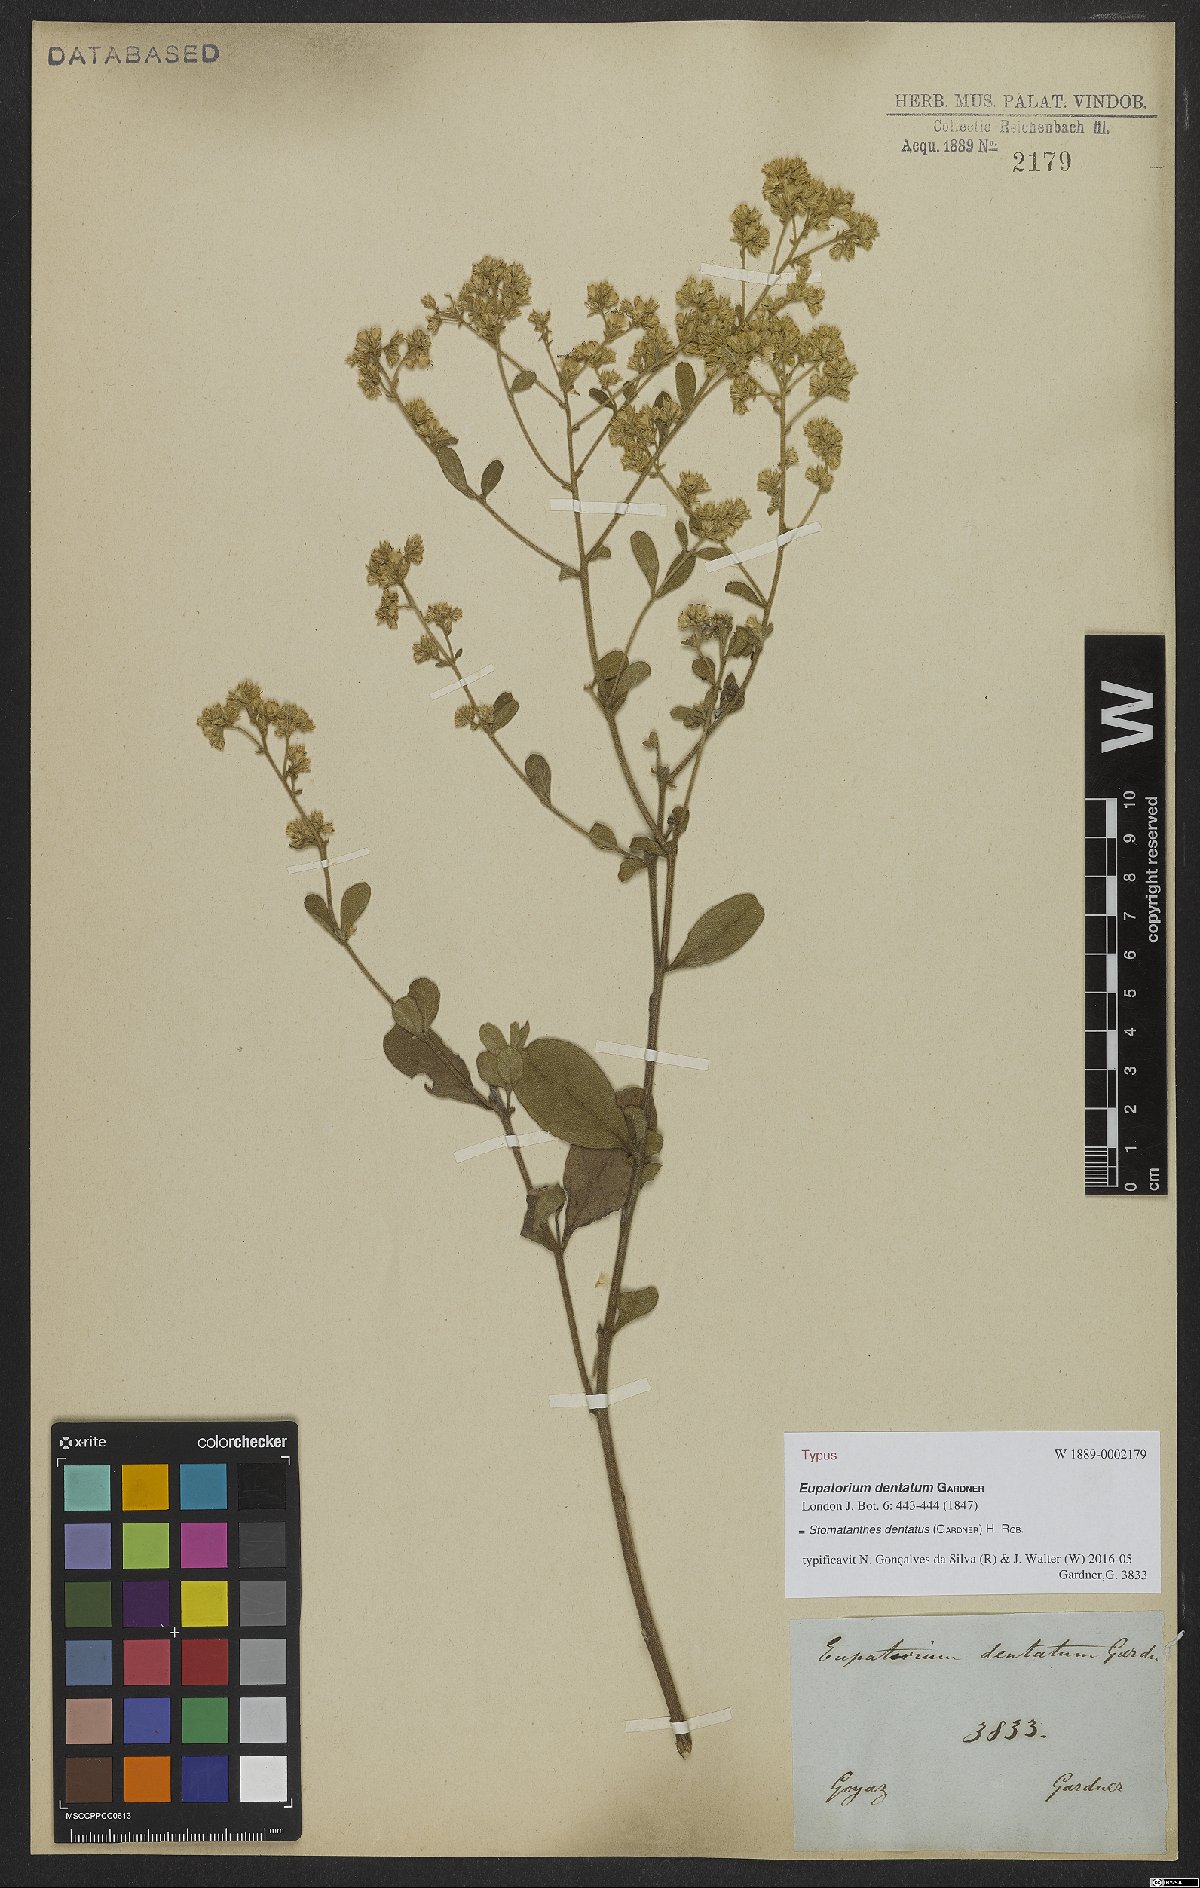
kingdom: Plantae
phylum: Tracheophyta
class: Magnoliopsida
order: Asterales
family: Asteraceae
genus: Stomatanthes
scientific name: Stomatanthes dentatus
